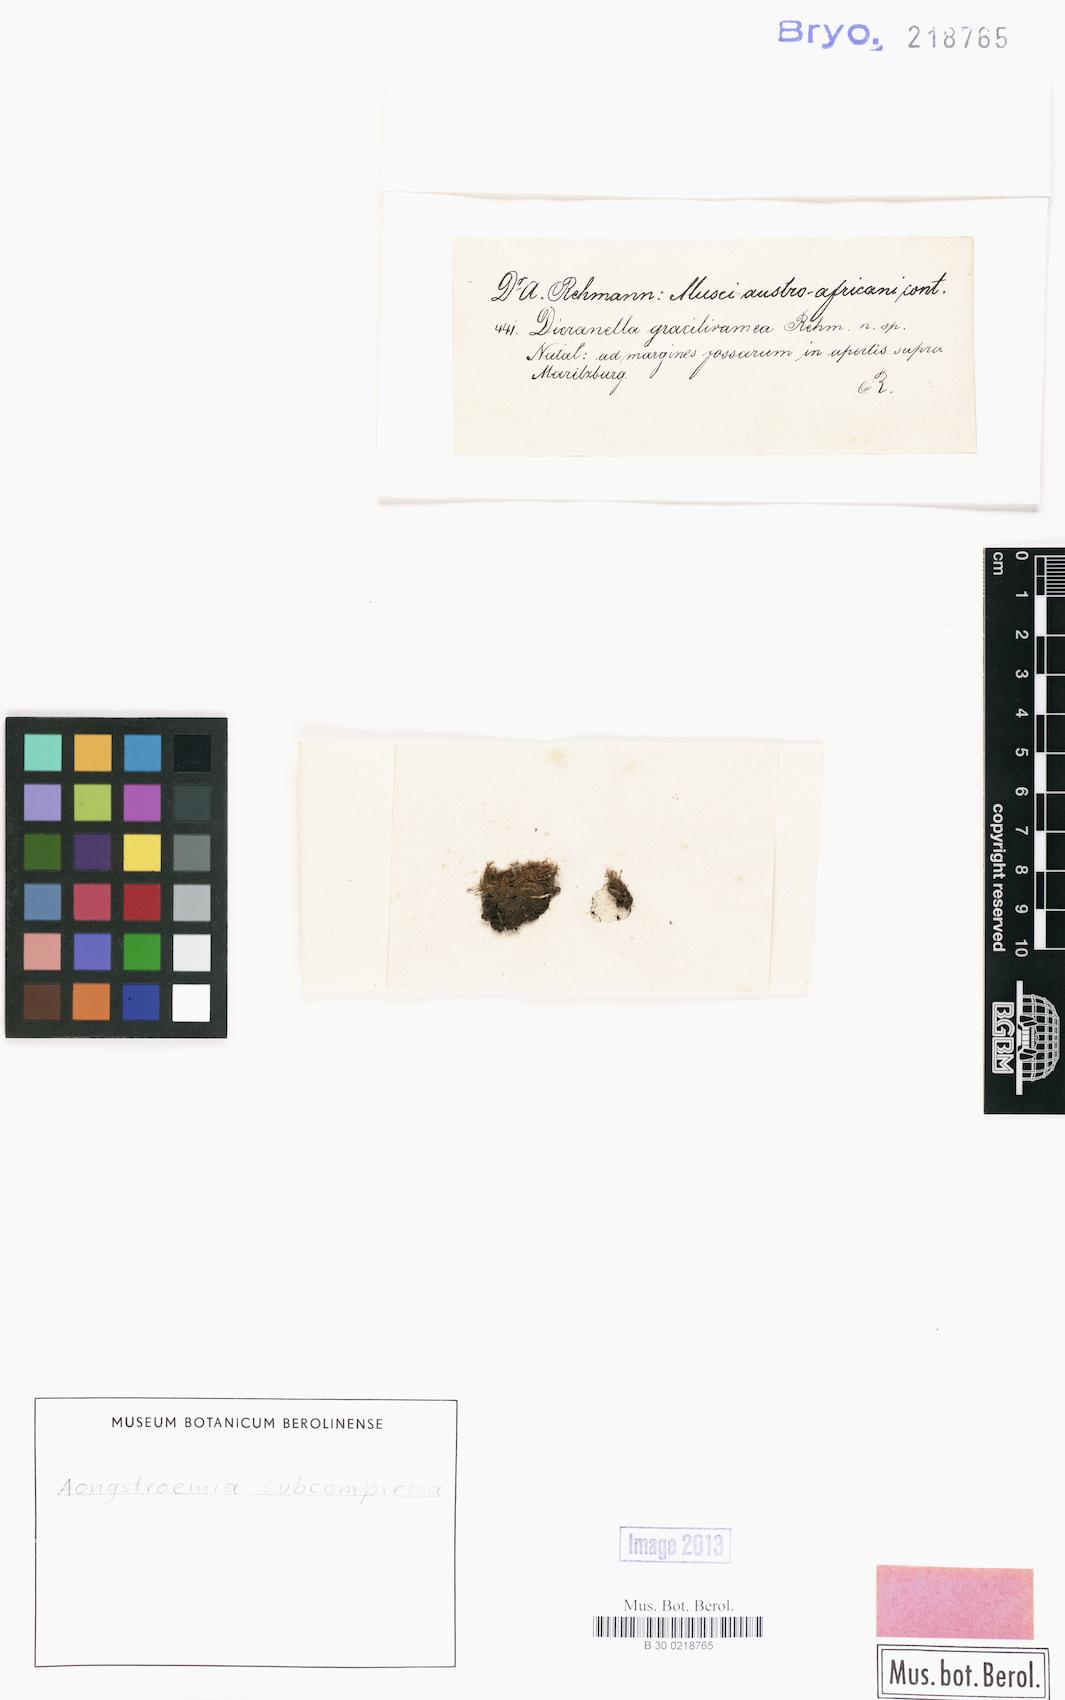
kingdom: Plantae
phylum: Bryophyta
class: Bryopsida
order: Dicranales
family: Aongstroemiaceae
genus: Aongstroemia
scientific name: Aongstroemia subcompressa
